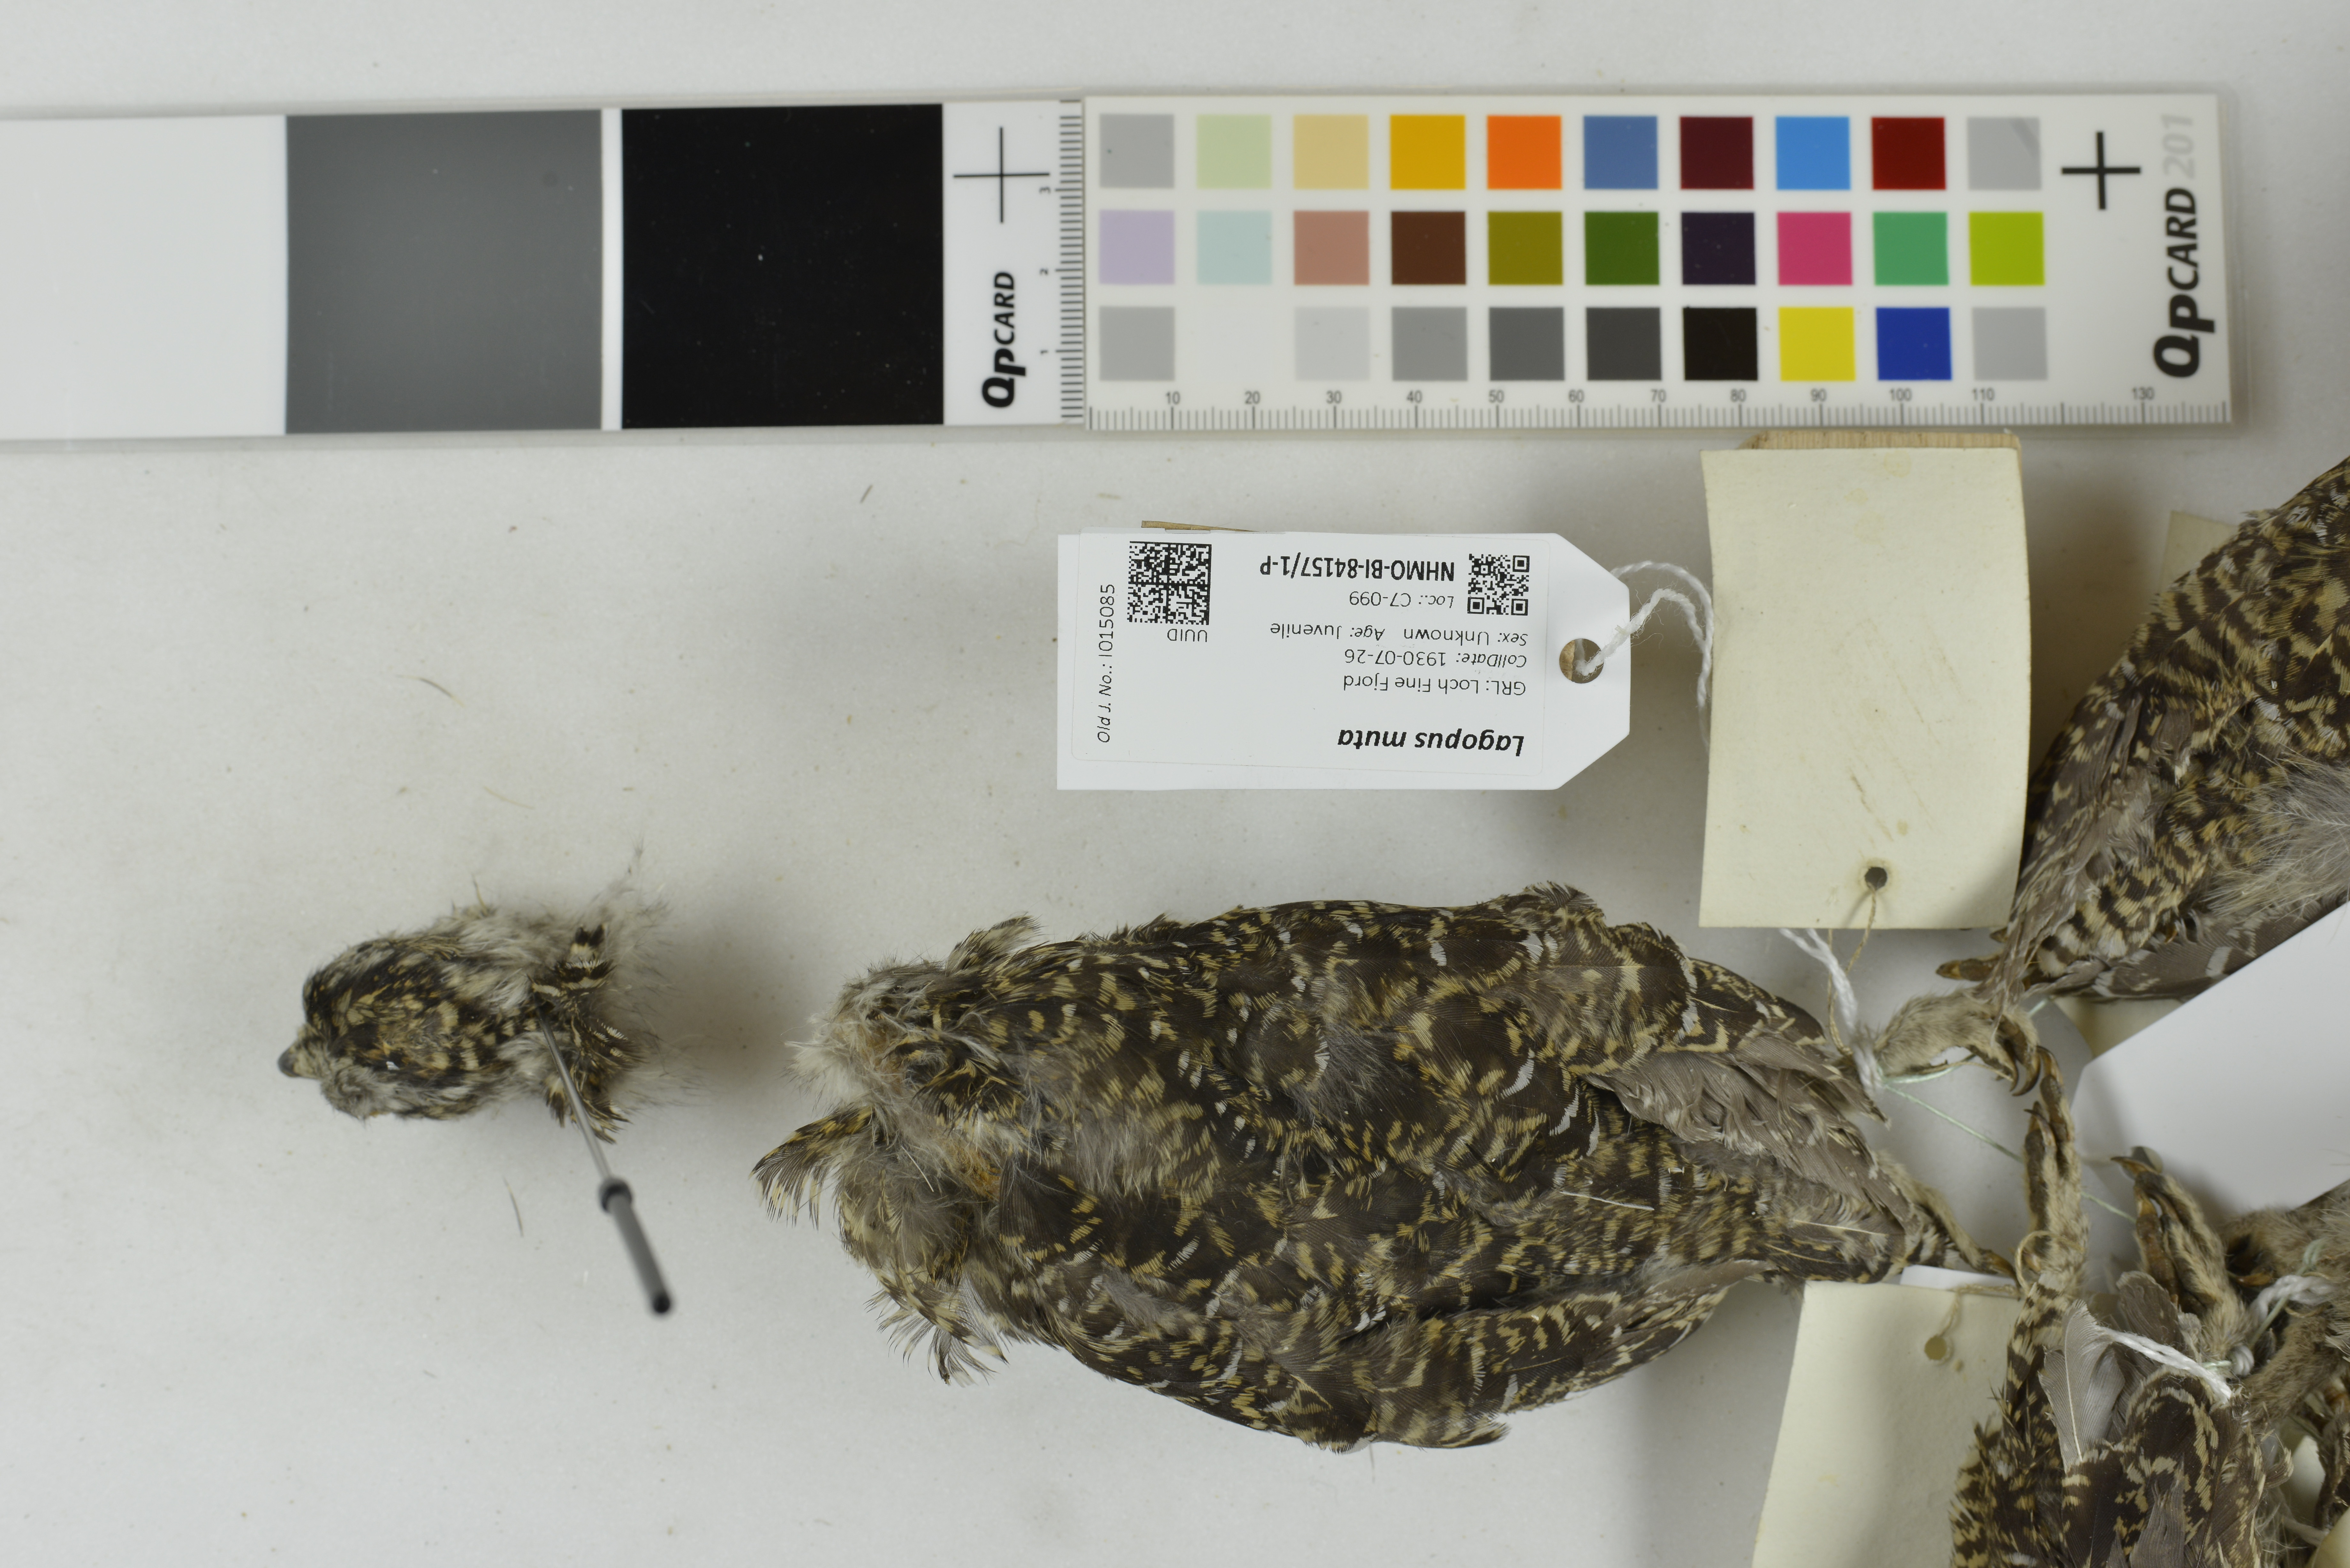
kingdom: Animalia
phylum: Chordata
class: Aves
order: Galliformes
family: Phasianidae
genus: Lagopus
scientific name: Lagopus muta
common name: Rock ptarmigan
